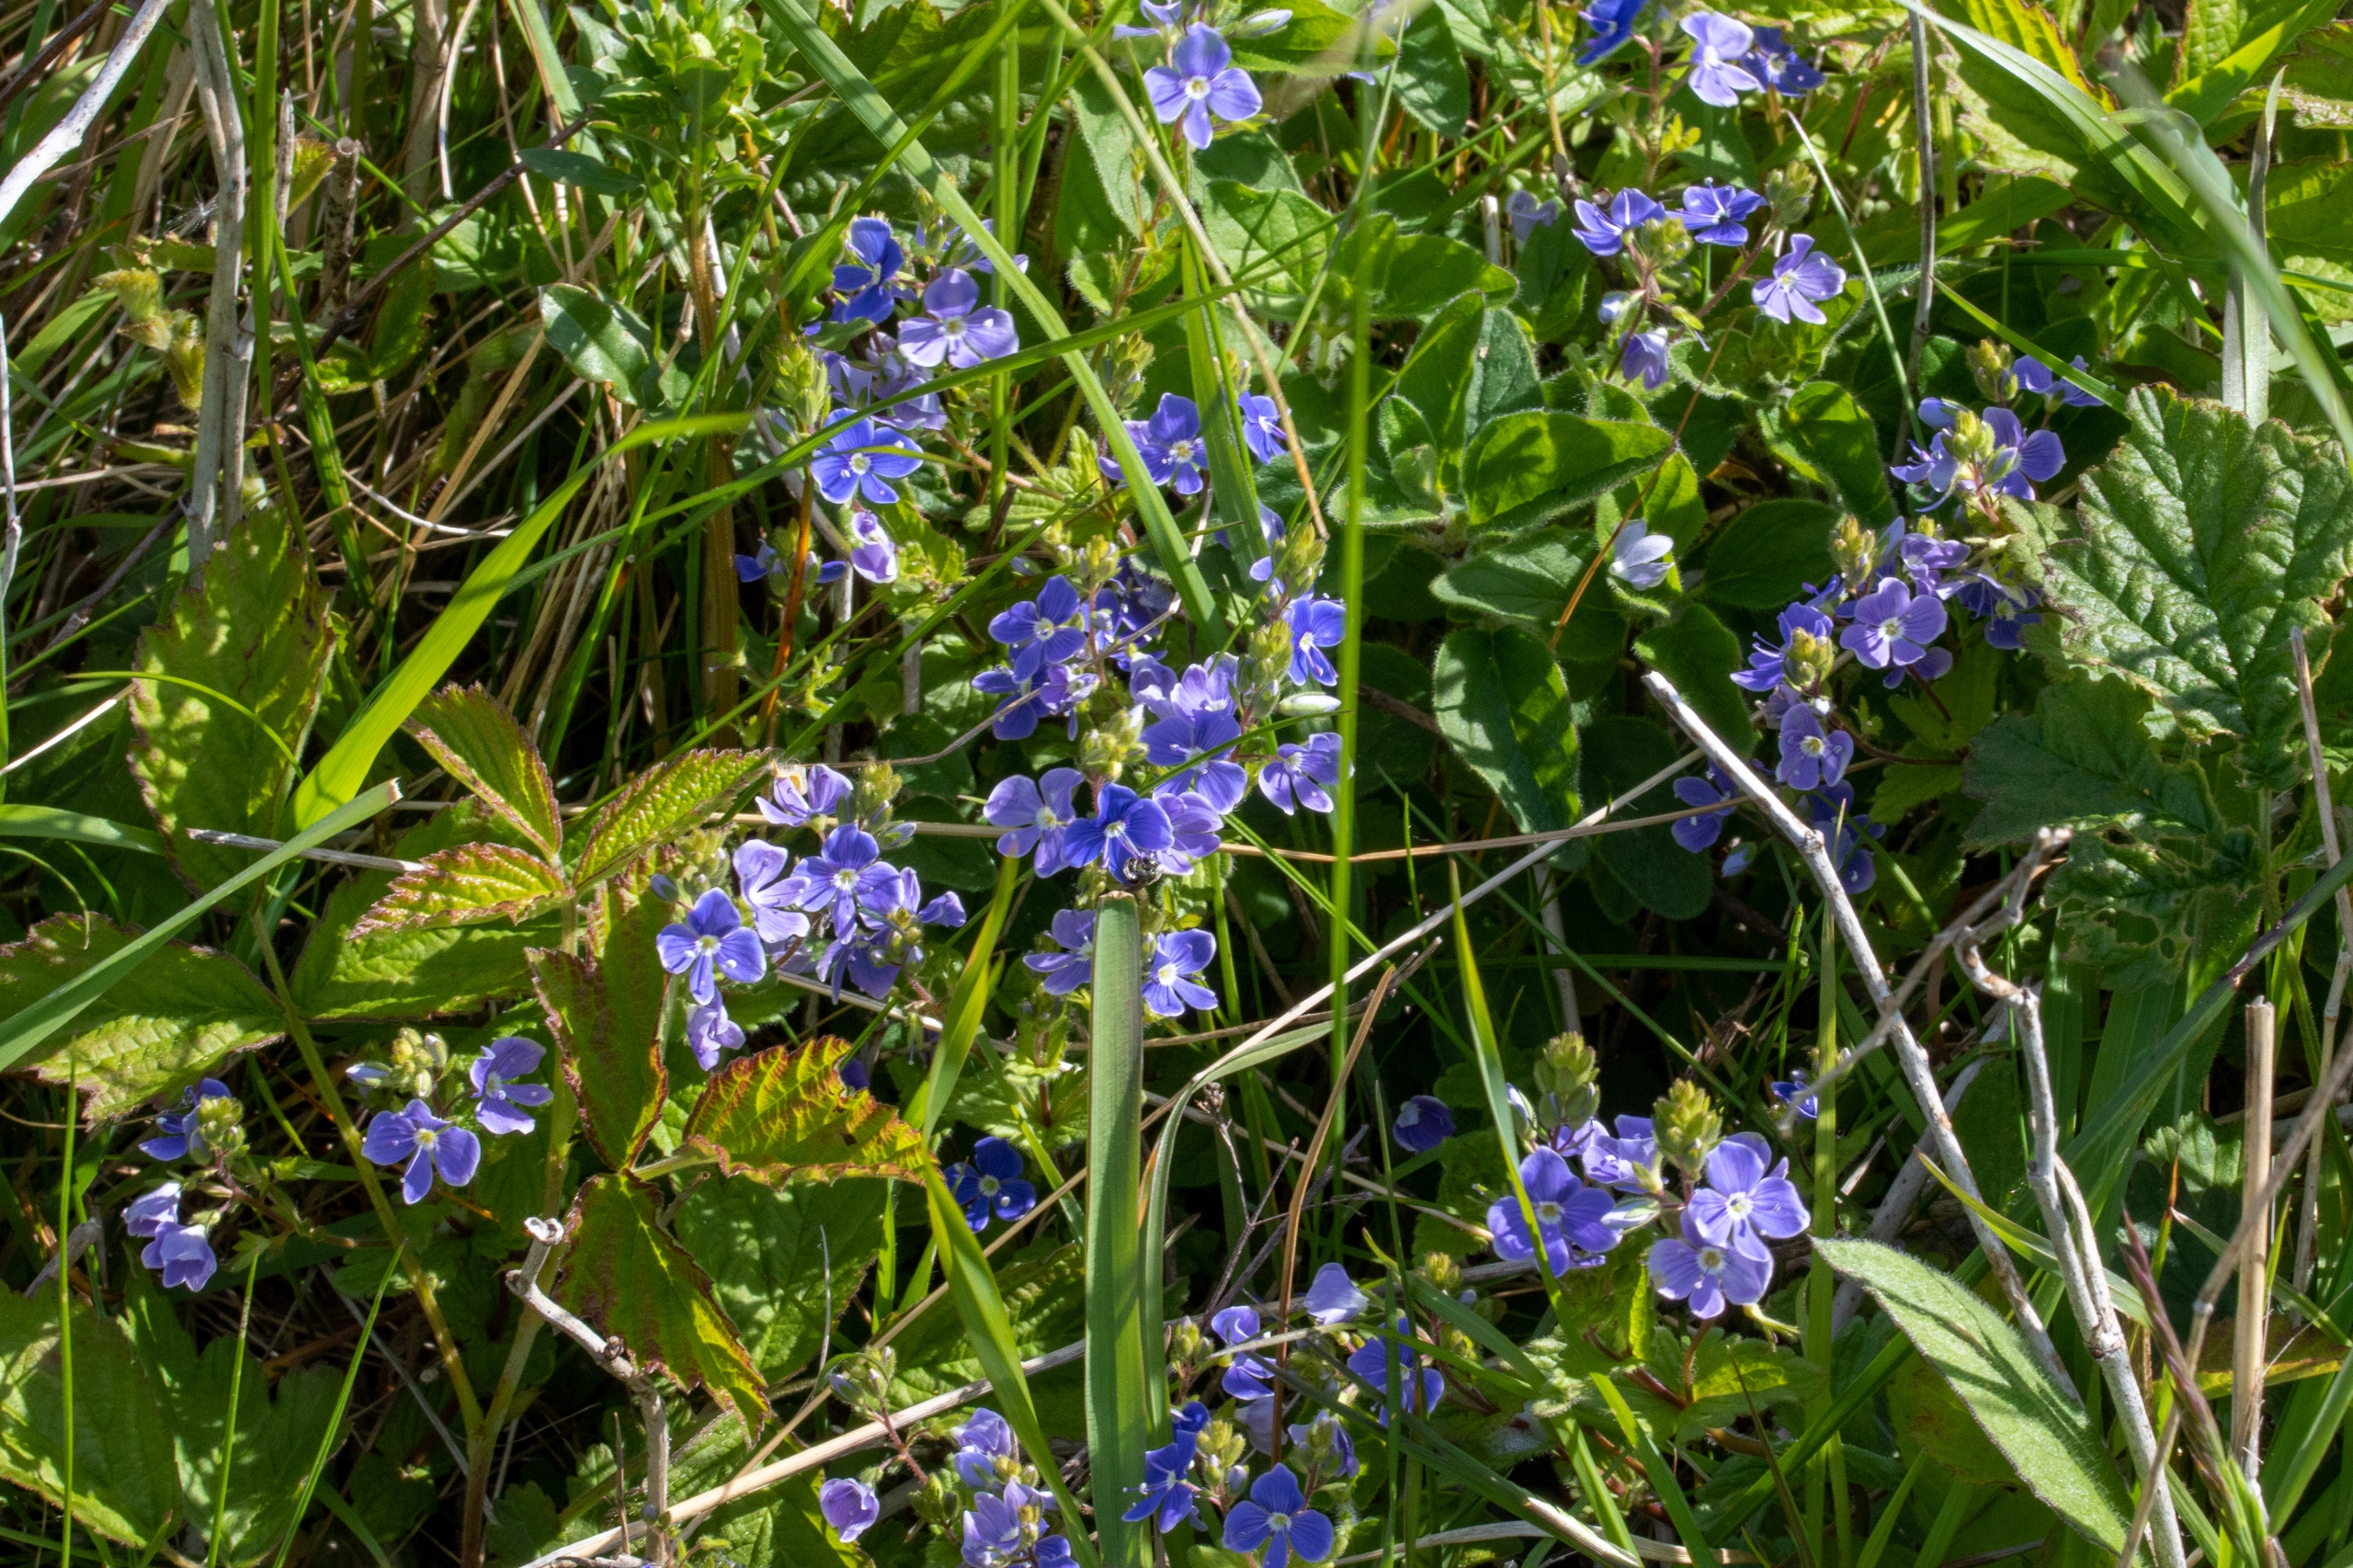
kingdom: Plantae
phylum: Tracheophyta
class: Magnoliopsida
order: Lamiales
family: Plantaginaceae
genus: Veronica
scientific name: Veronica chamaedrys
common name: Tveskægget ærenpris
